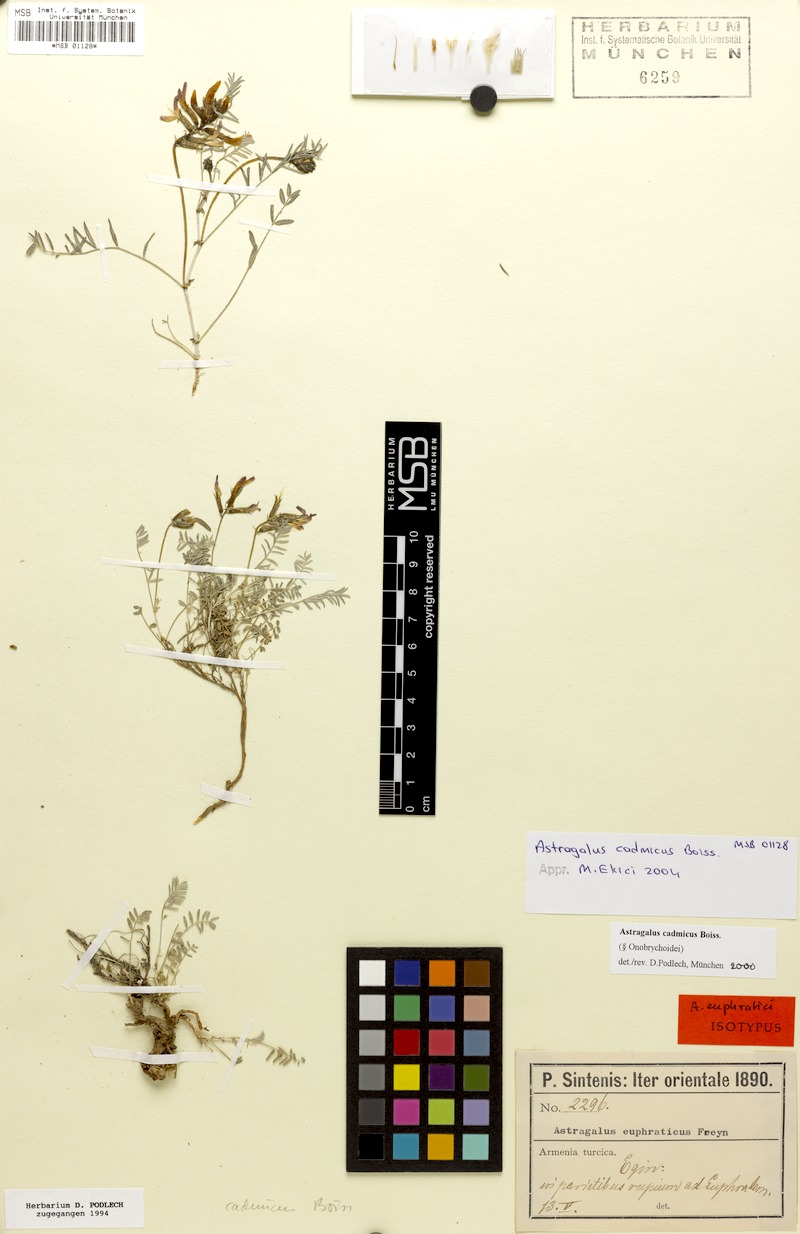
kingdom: Plantae
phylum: Tracheophyta
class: Magnoliopsida
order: Fabales
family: Fabaceae
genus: Astragalus
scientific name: Astragalus cadmicus
